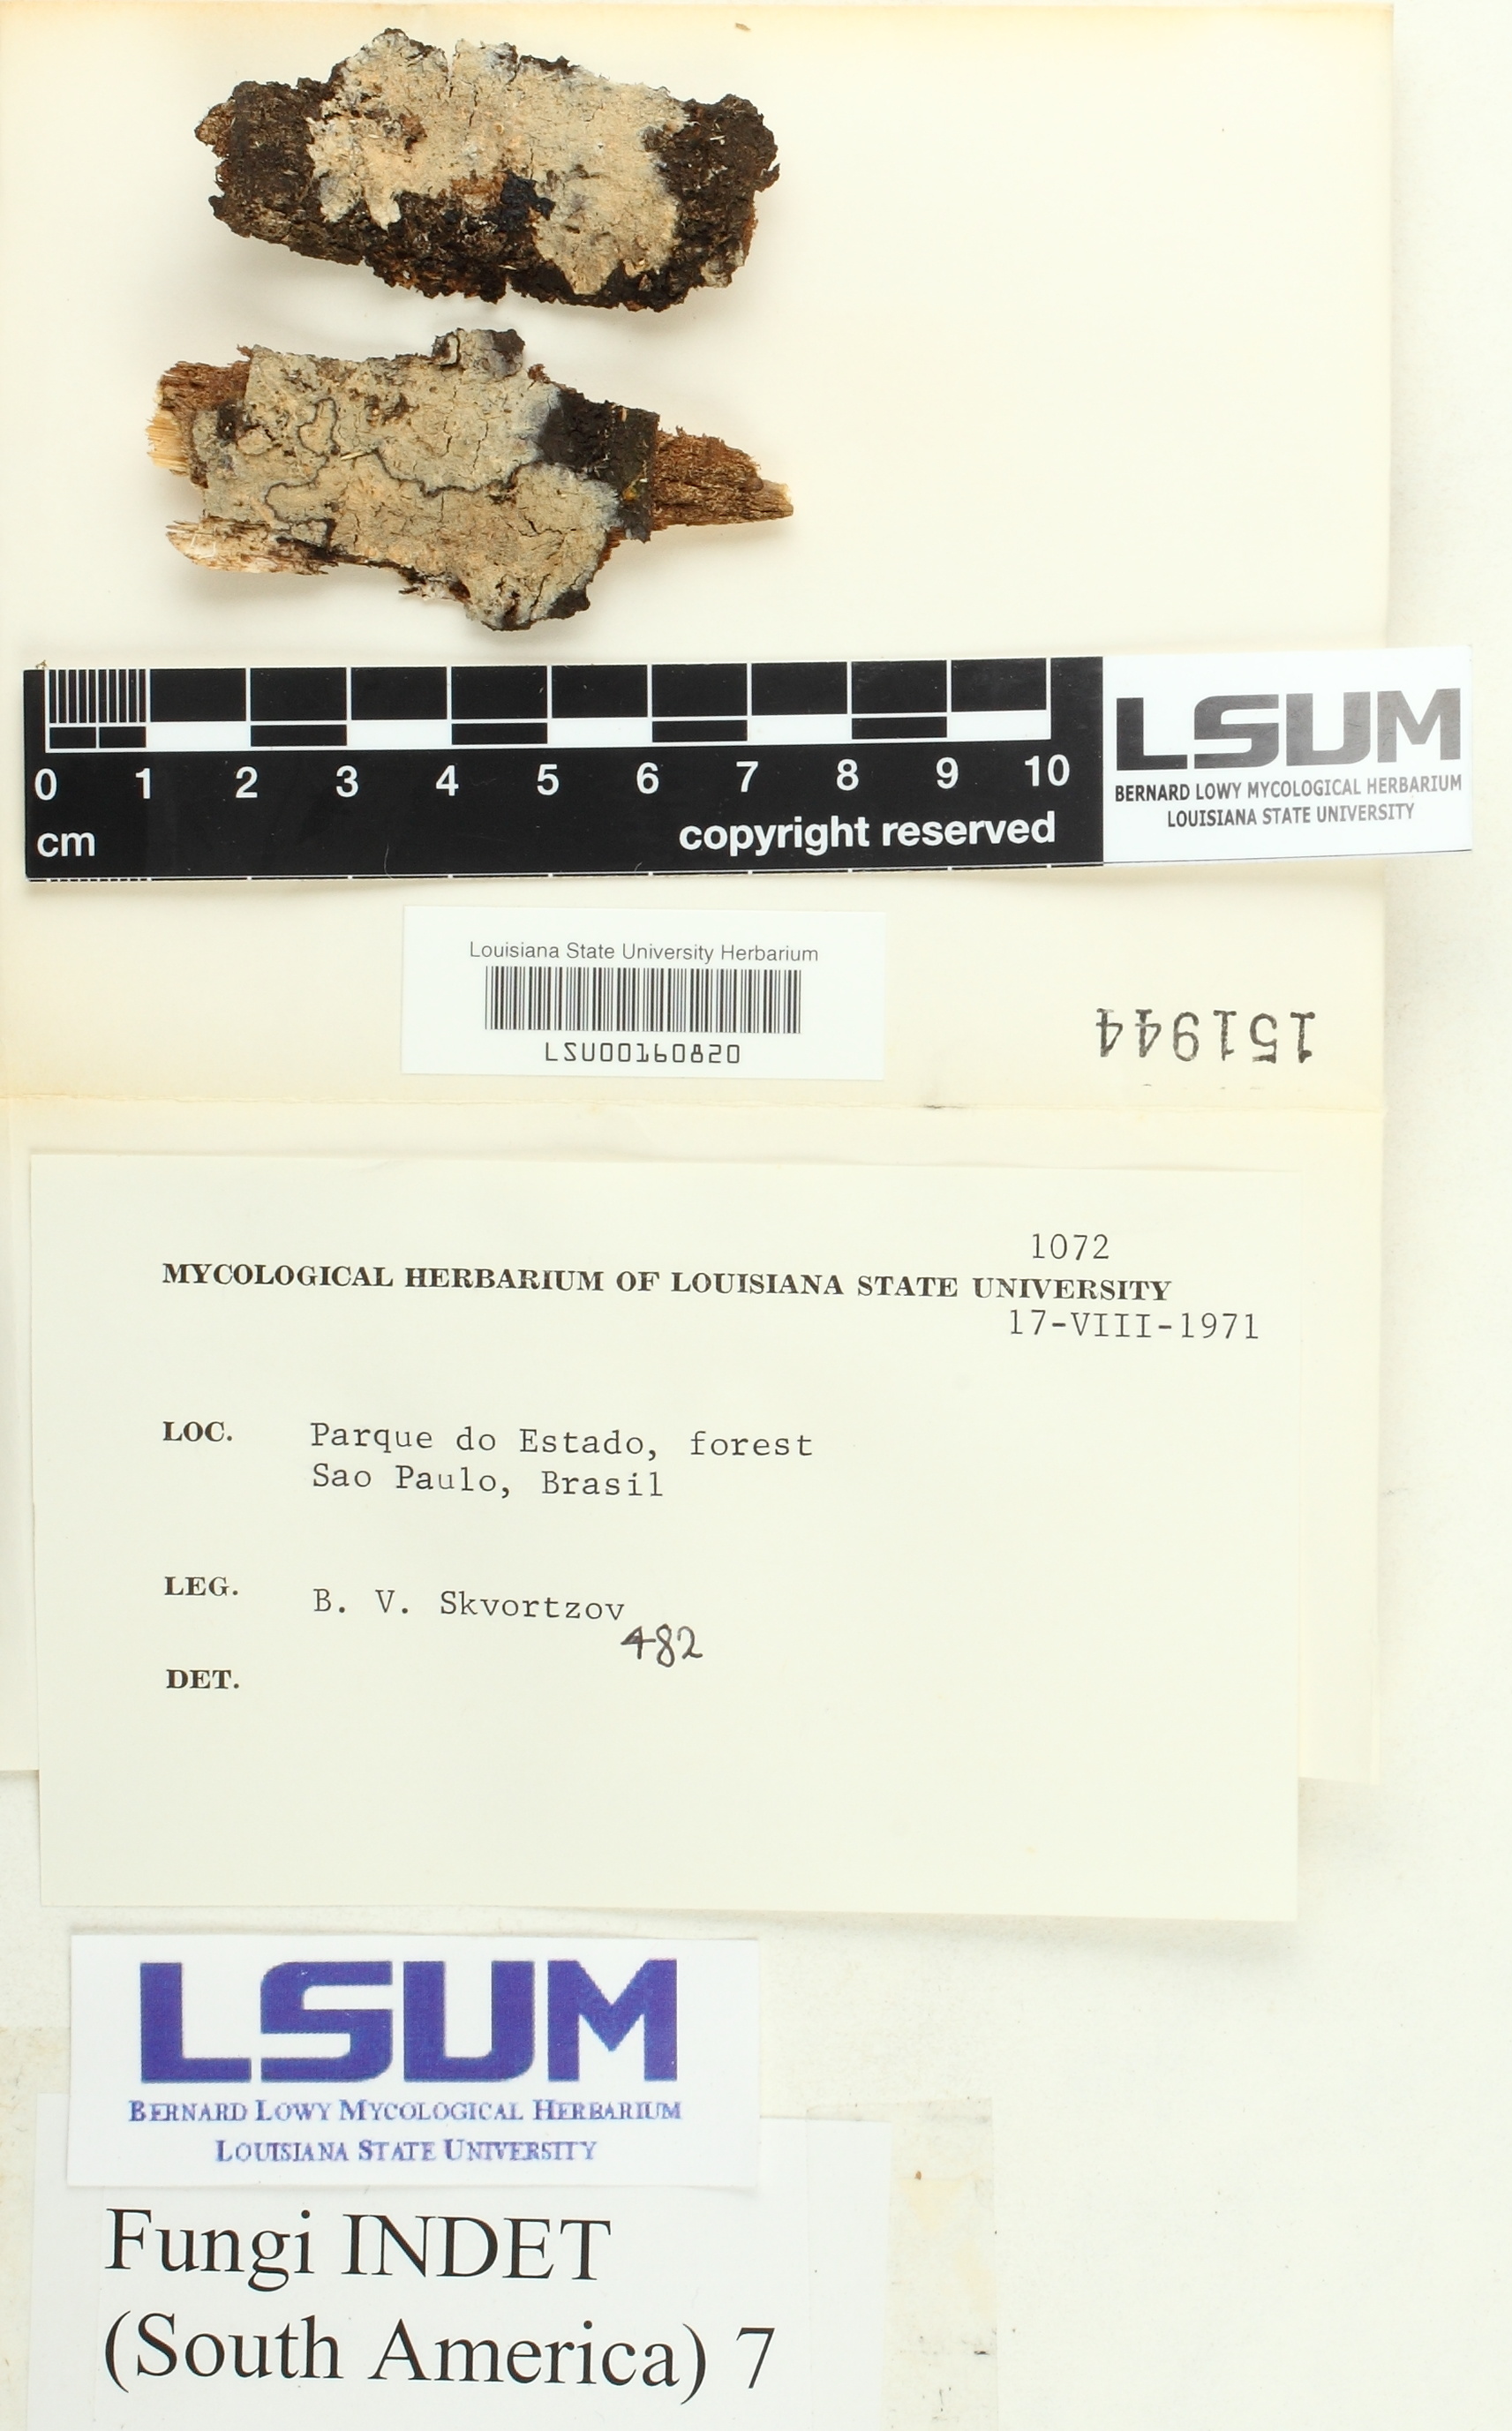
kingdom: Fungi
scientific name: Fungi
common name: Fungi
